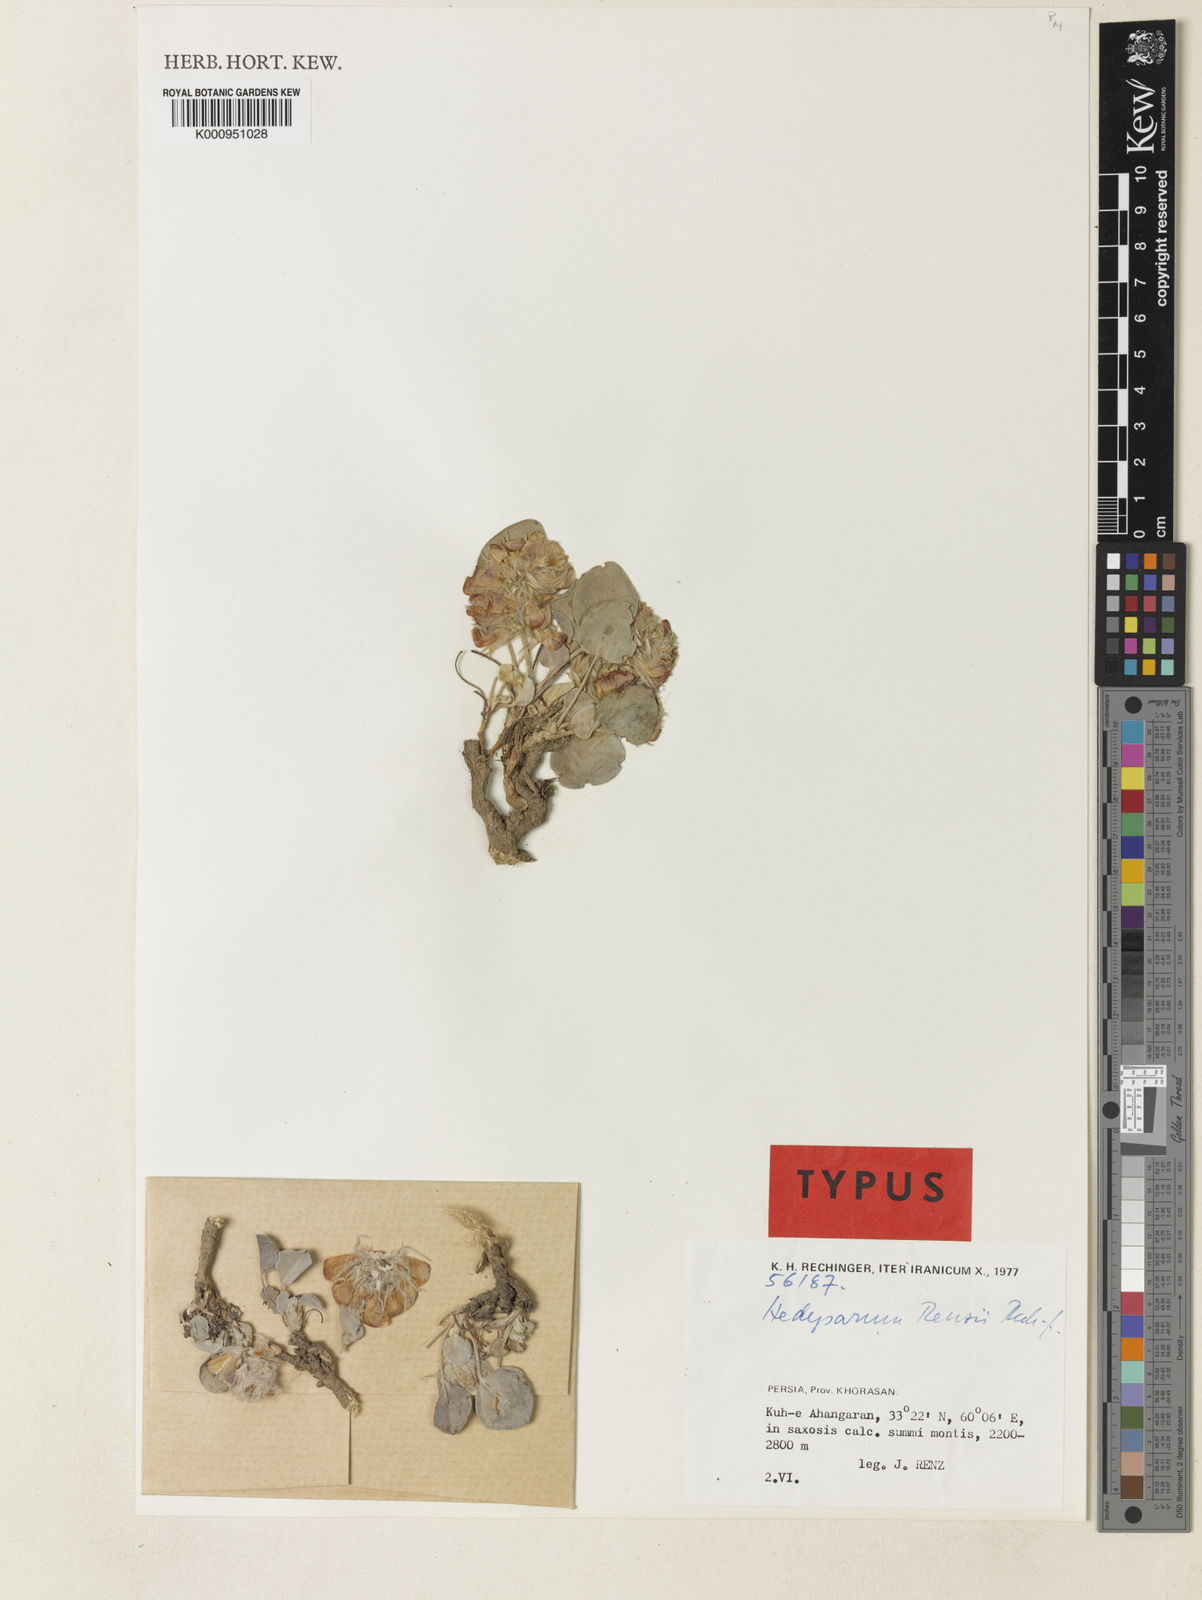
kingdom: Plantae
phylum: Tracheophyta
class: Magnoliopsida
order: Fabales
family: Fabaceae
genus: Hedysarum
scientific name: Hedysarum renzii
